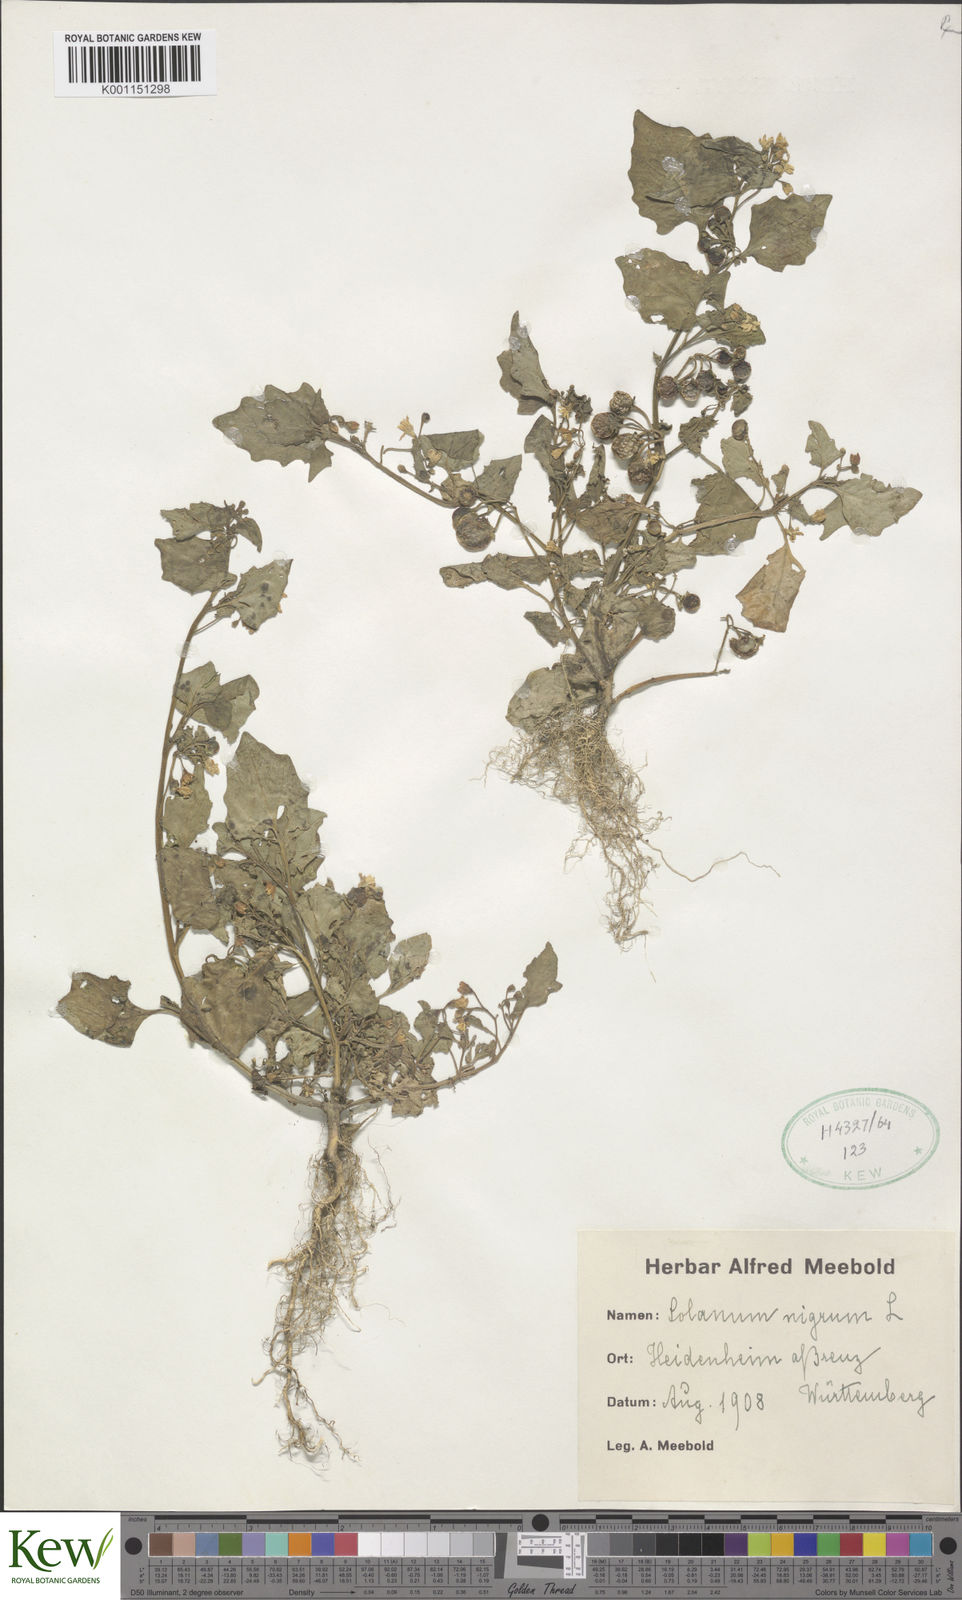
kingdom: Plantae
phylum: Tracheophyta
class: Magnoliopsida
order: Solanales
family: Solanaceae
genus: Solanum
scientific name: Solanum nigrum
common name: Black nightshade
